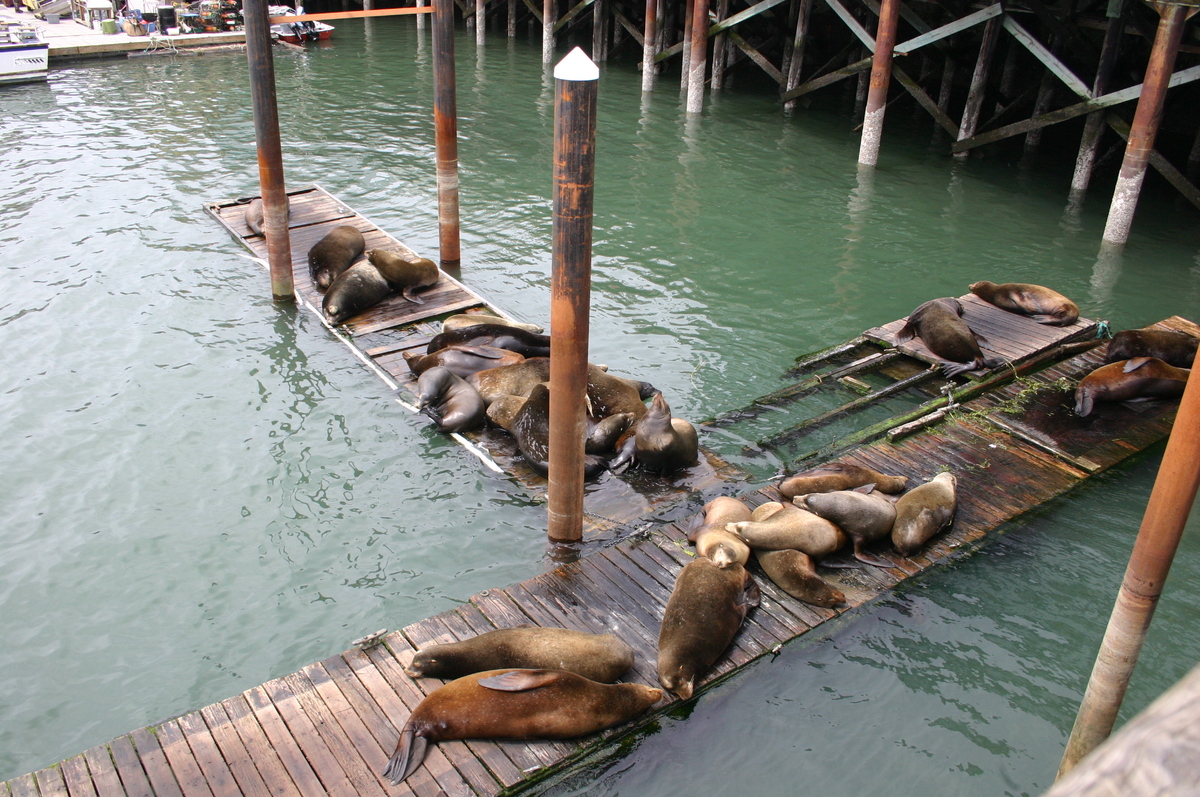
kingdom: Animalia
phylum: Chordata
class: Mammalia
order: Carnivora
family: Otariidae
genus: Zalophus
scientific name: Zalophus californianus
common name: California sea lion
